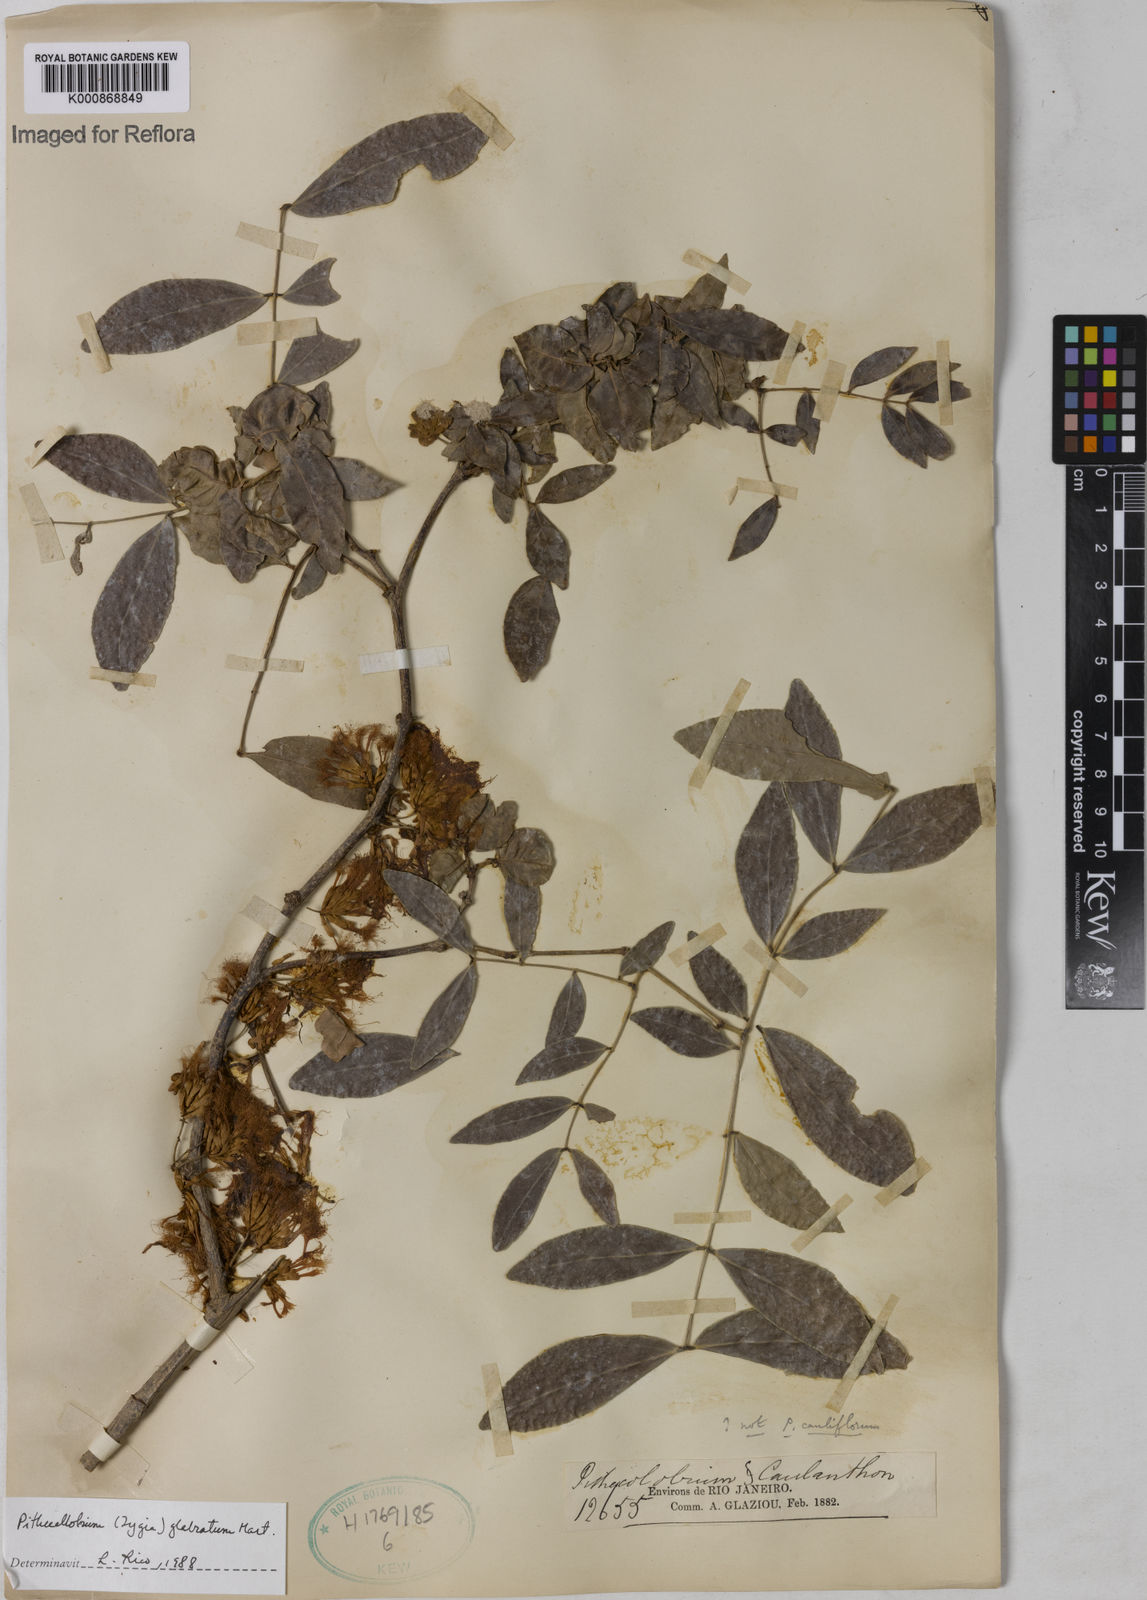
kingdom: Plantae
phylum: Tracheophyta
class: Magnoliopsida
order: Fabales
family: Fabaceae
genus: Zygia
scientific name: Zygia
